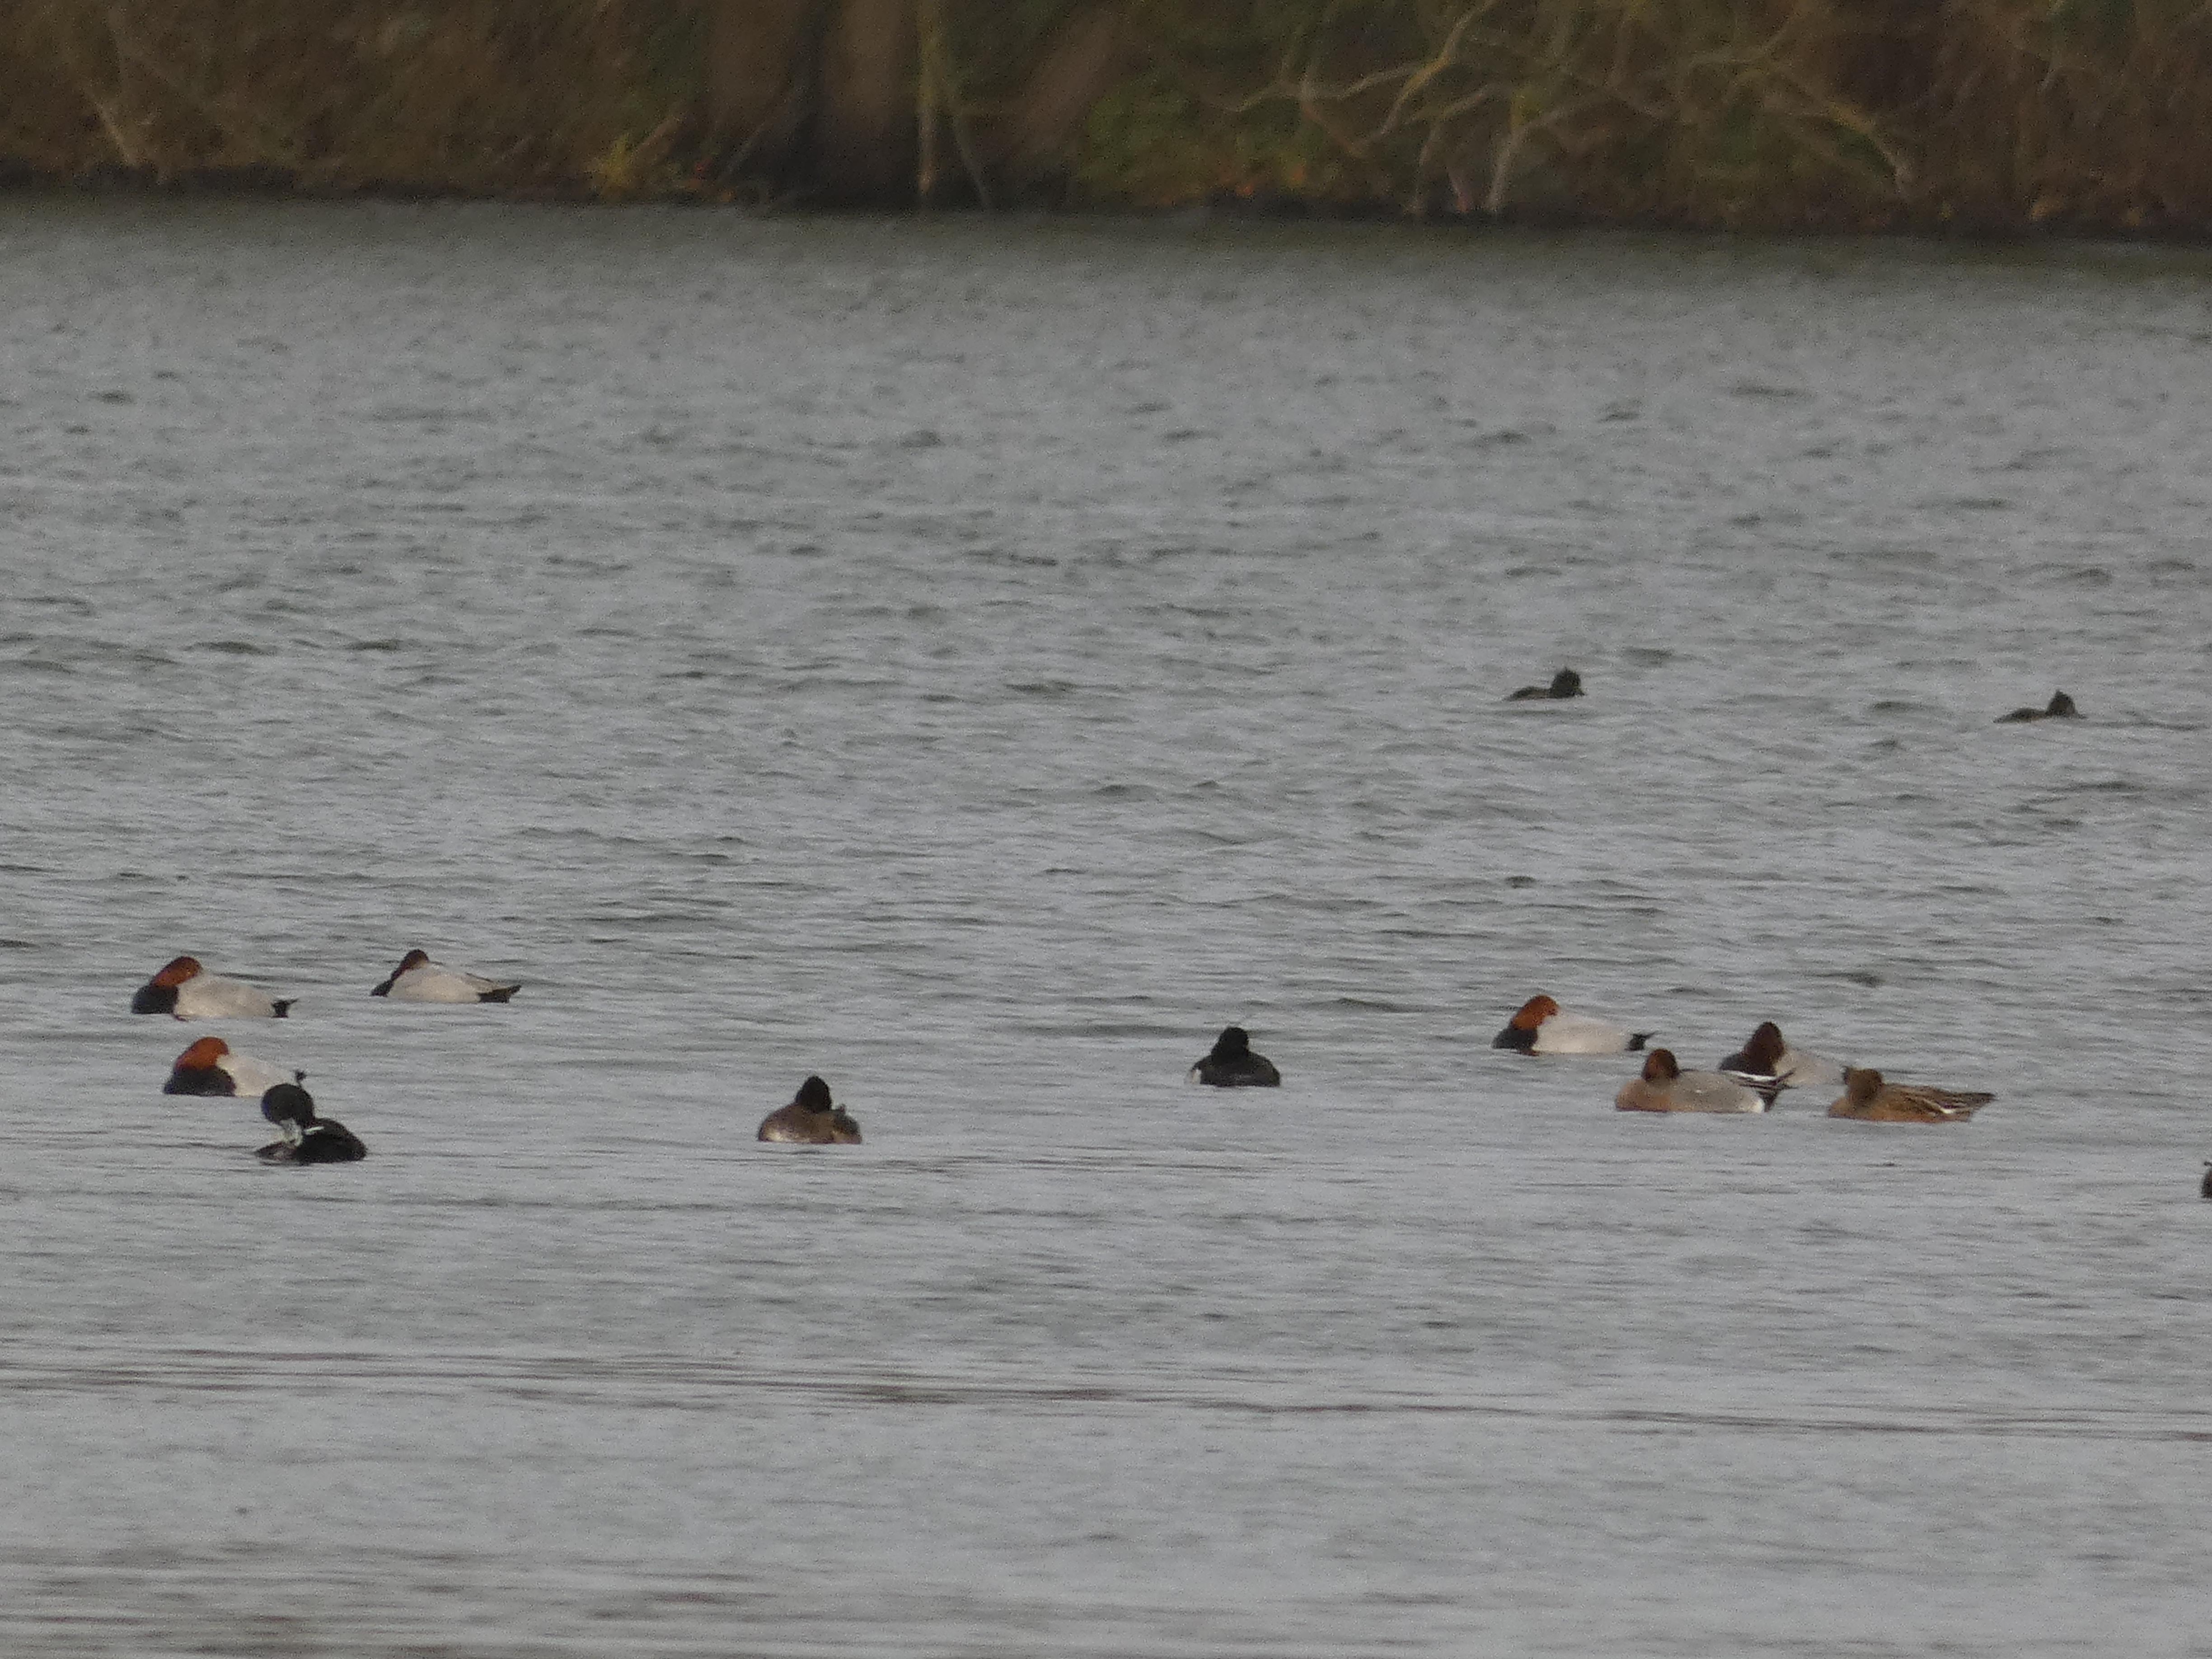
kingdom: Animalia
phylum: Chordata
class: Aves
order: Anseriformes
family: Anatidae
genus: Aythya
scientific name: Aythya ferina
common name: Taffeland
